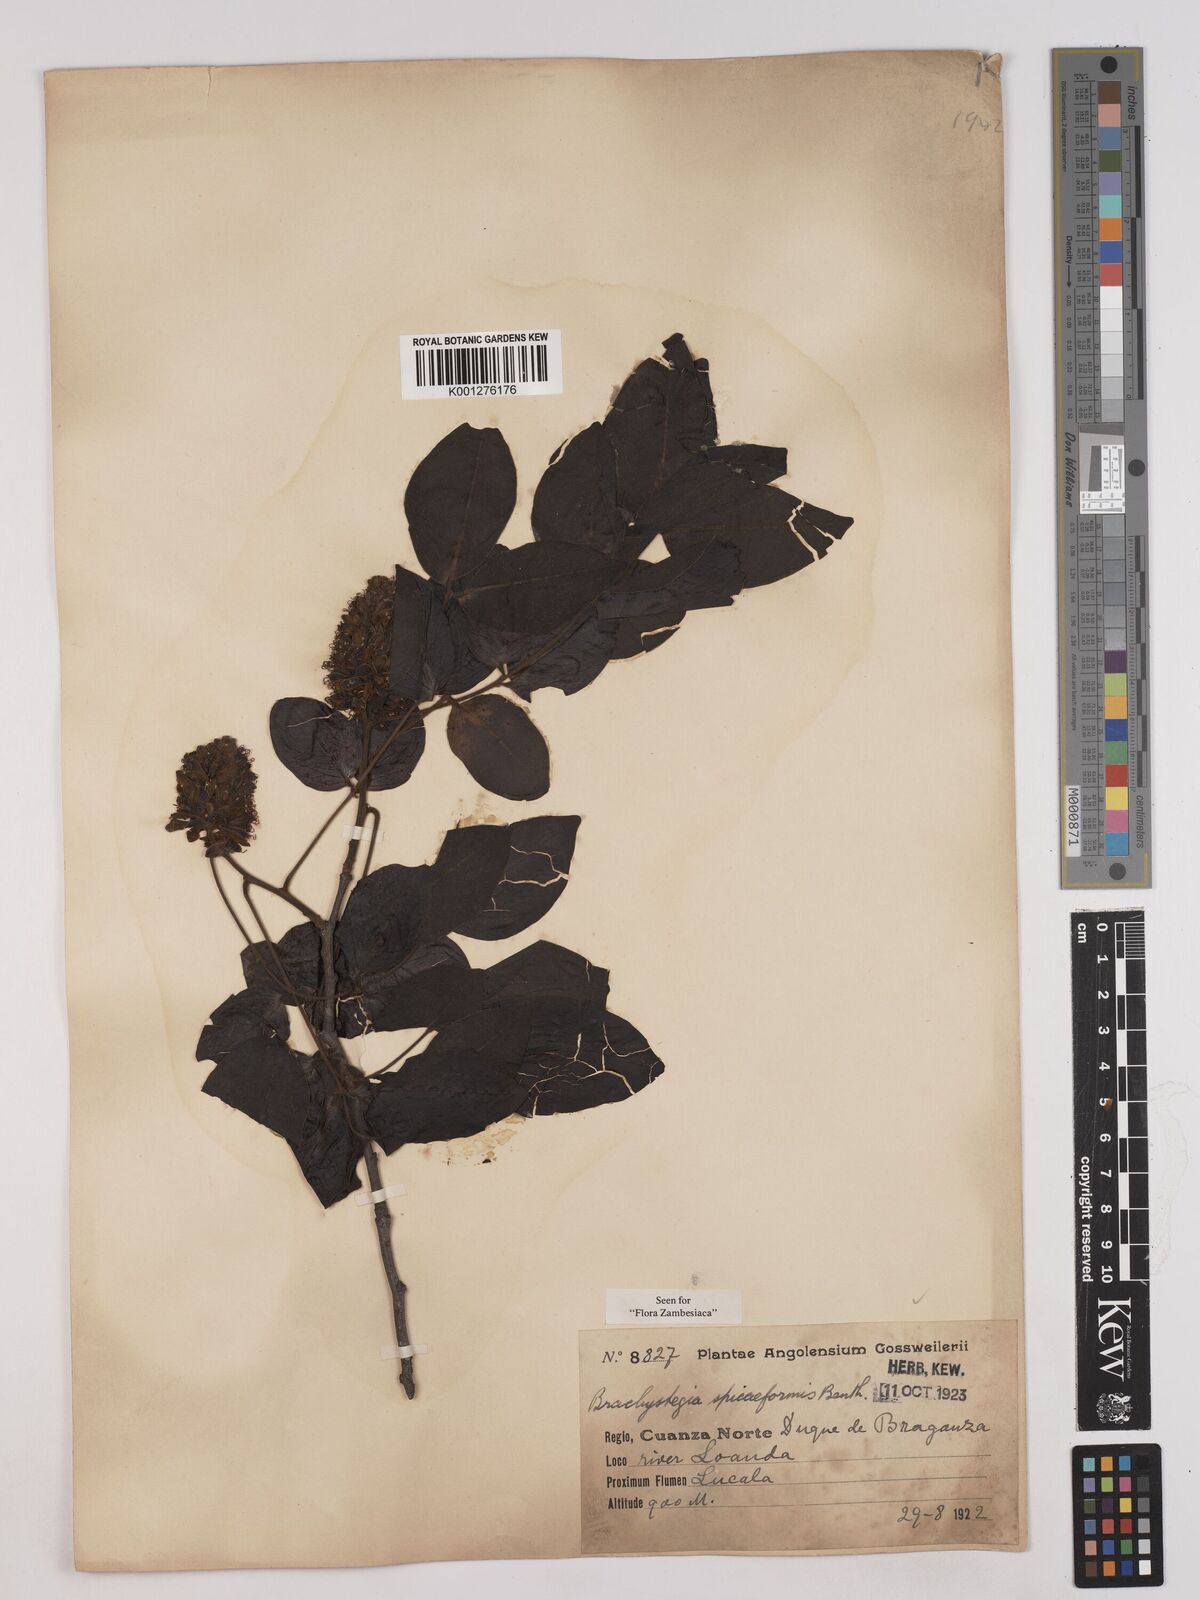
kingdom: Plantae
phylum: Tracheophyta
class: Magnoliopsida
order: Fabales
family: Fabaceae
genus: Brachystegia
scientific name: Brachystegia
